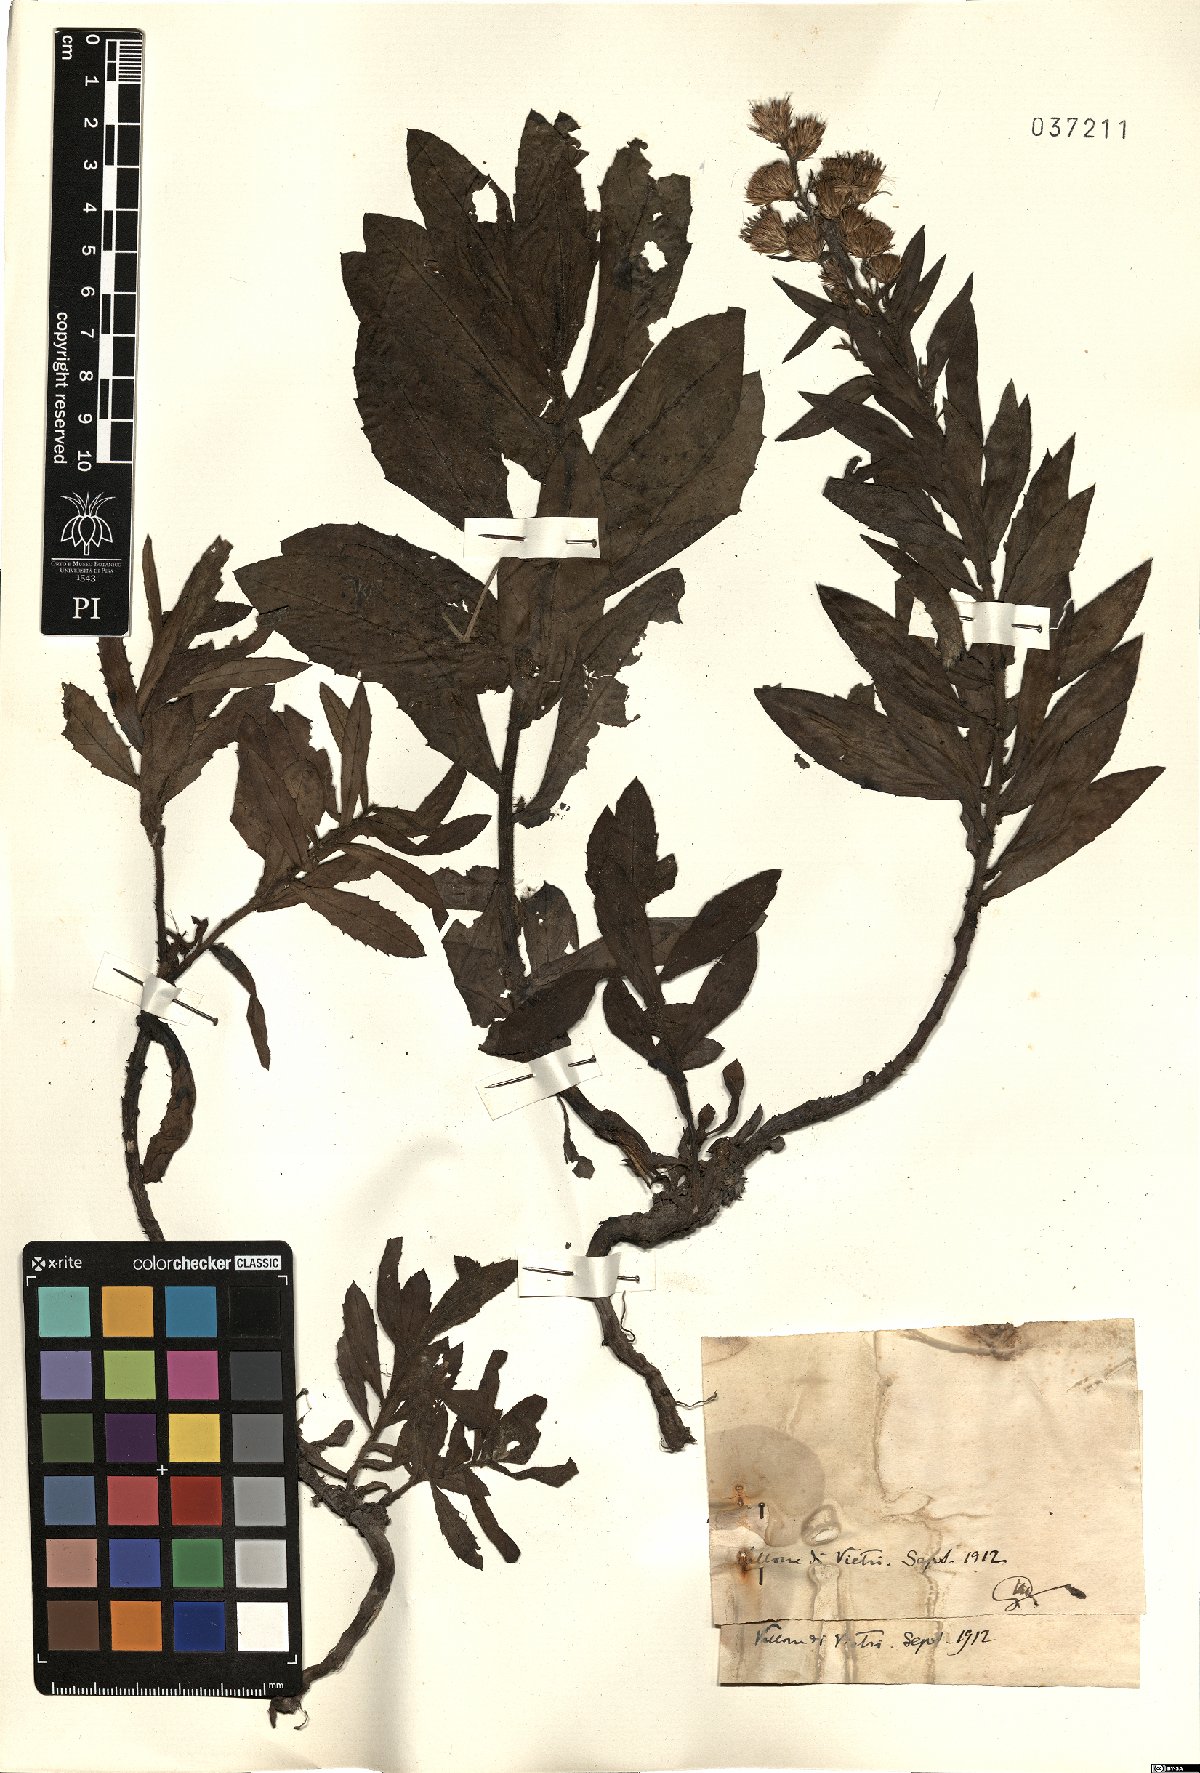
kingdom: Plantae
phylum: Tracheophyta
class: Magnoliopsida
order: Asterales
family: Asteraceae
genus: Inula
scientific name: Inula
